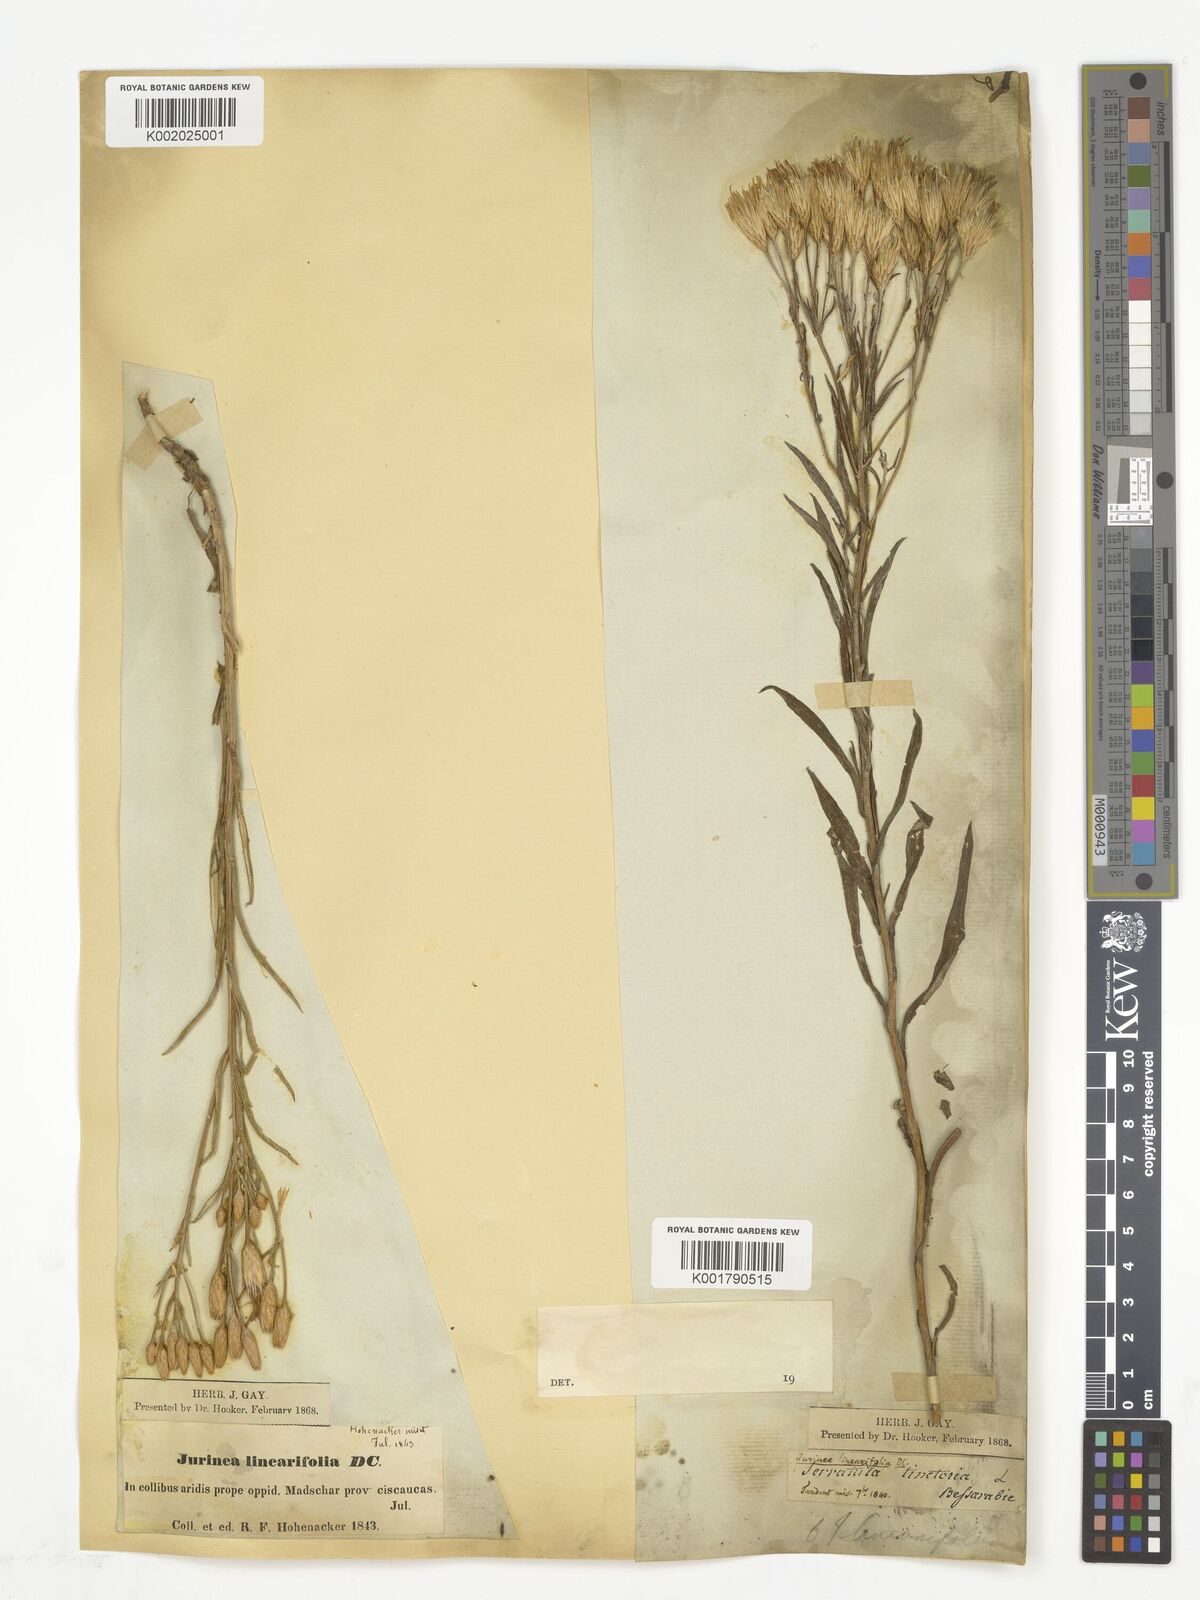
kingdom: Plantae
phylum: Tracheophyta
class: Magnoliopsida
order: Asterales
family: Asteraceae
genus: Jurinea
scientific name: Jurinea multiflora
